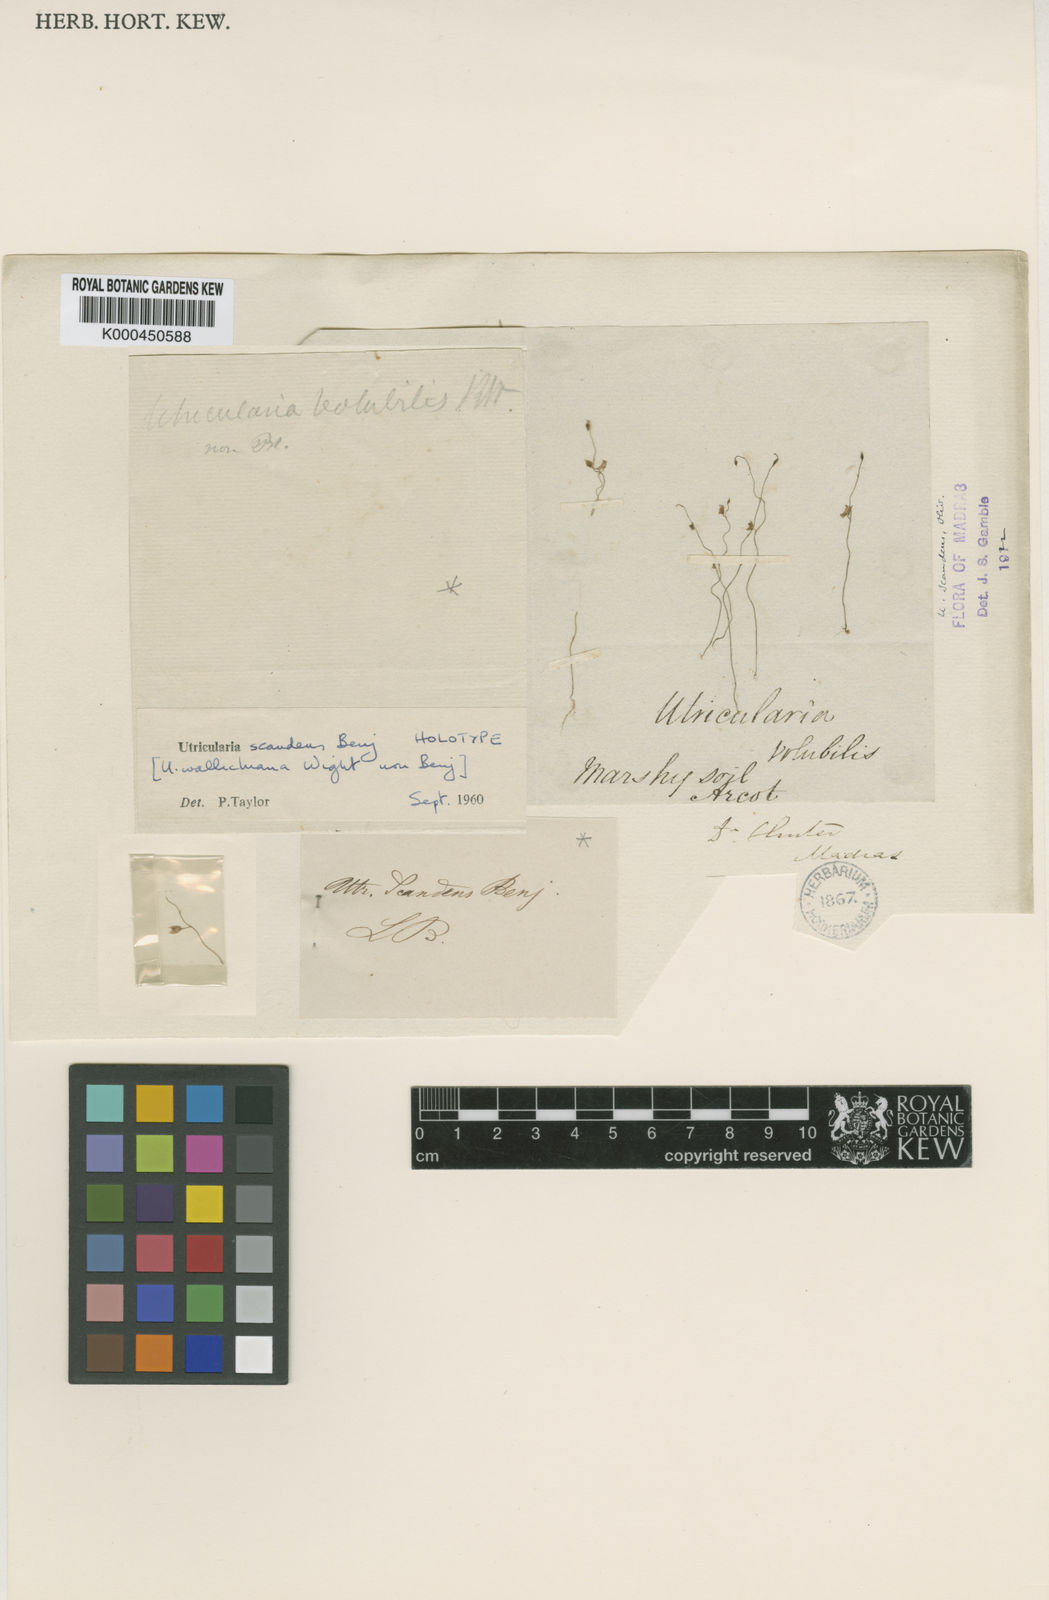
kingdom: Plantae
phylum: Tracheophyta
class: Magnoliopsida
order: Lamiales
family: Lentibulariaceae
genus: Utricularia
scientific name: Utricularia scandens
